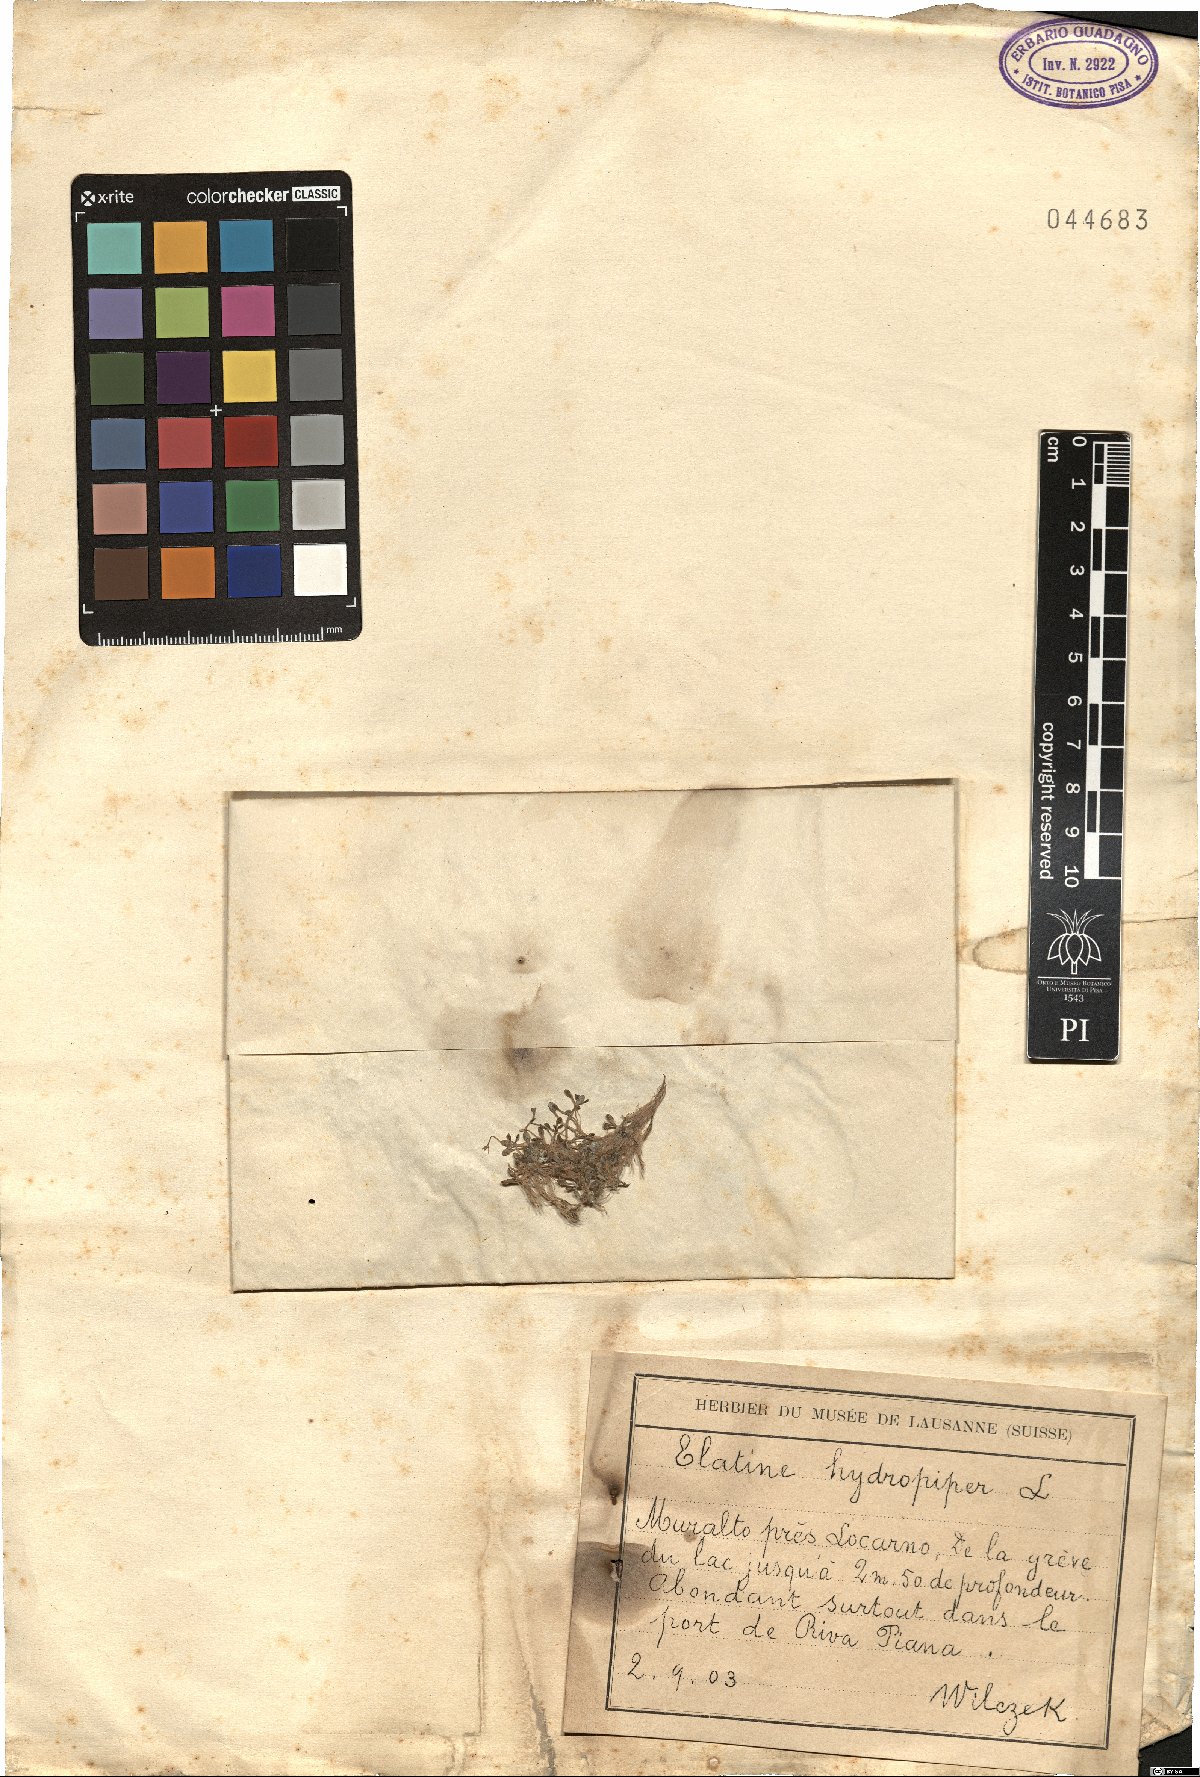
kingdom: Plantae
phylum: Tracheophyta
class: Magnoliopsida
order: Malpighiales
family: Elatinaceae
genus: Elatine
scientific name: Elatine hydropiper
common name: Eight-stamened waterwort
